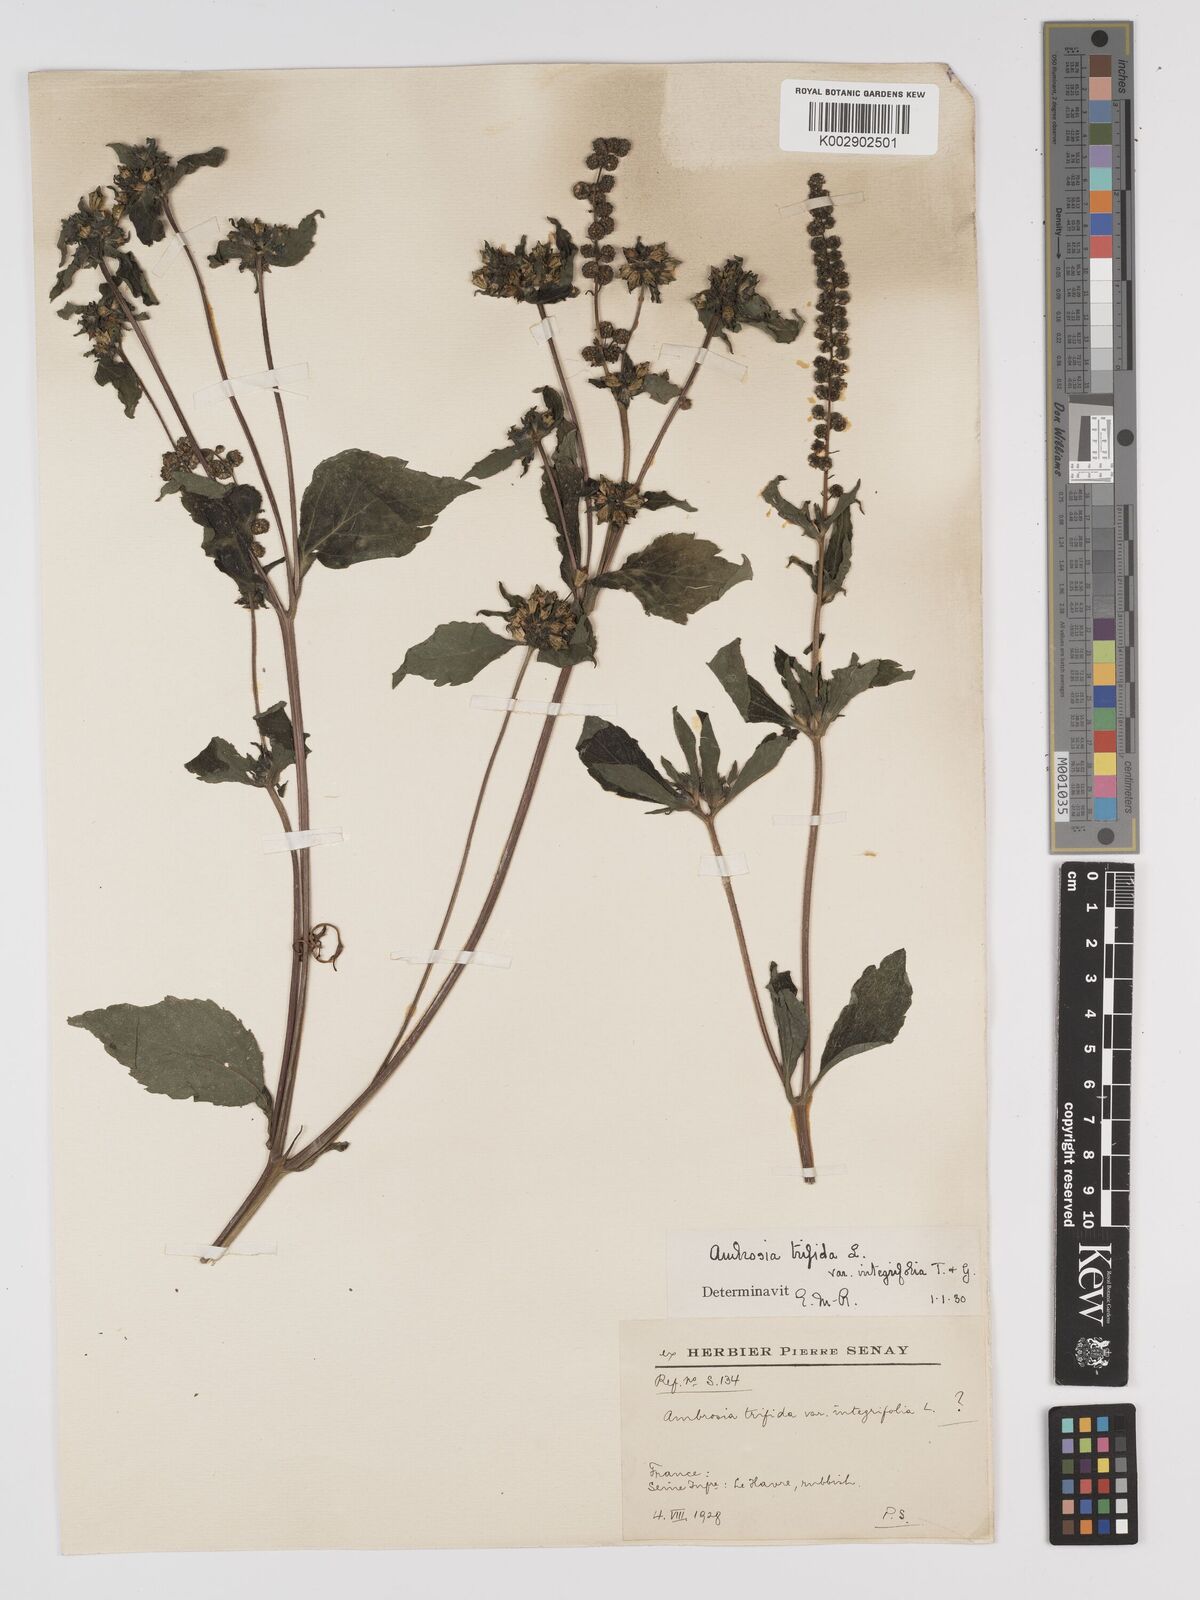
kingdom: Plantae
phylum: Tracheophyta
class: Magnoliopsida
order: Asterales
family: Asteraceae
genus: Ambrosia
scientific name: Ambrosia trifida
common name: Giant ragweed
